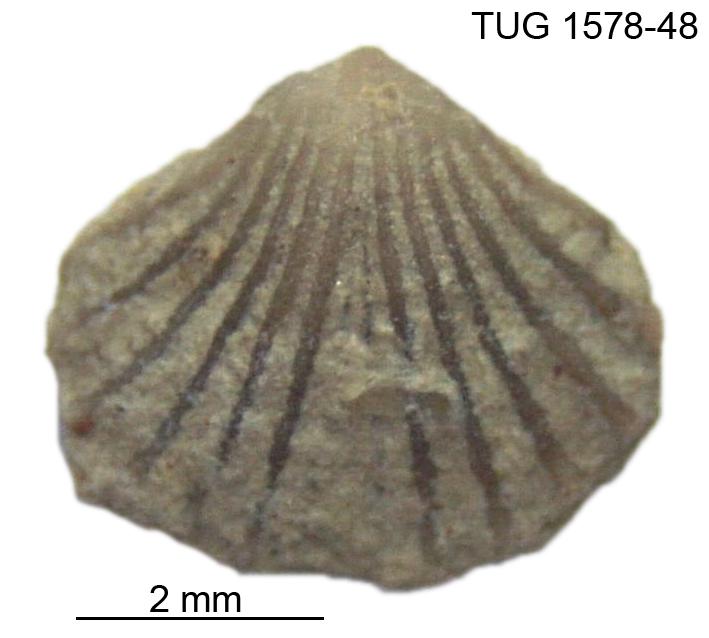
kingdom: Animalia
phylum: Brachiopoda
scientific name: Brachiopoda
